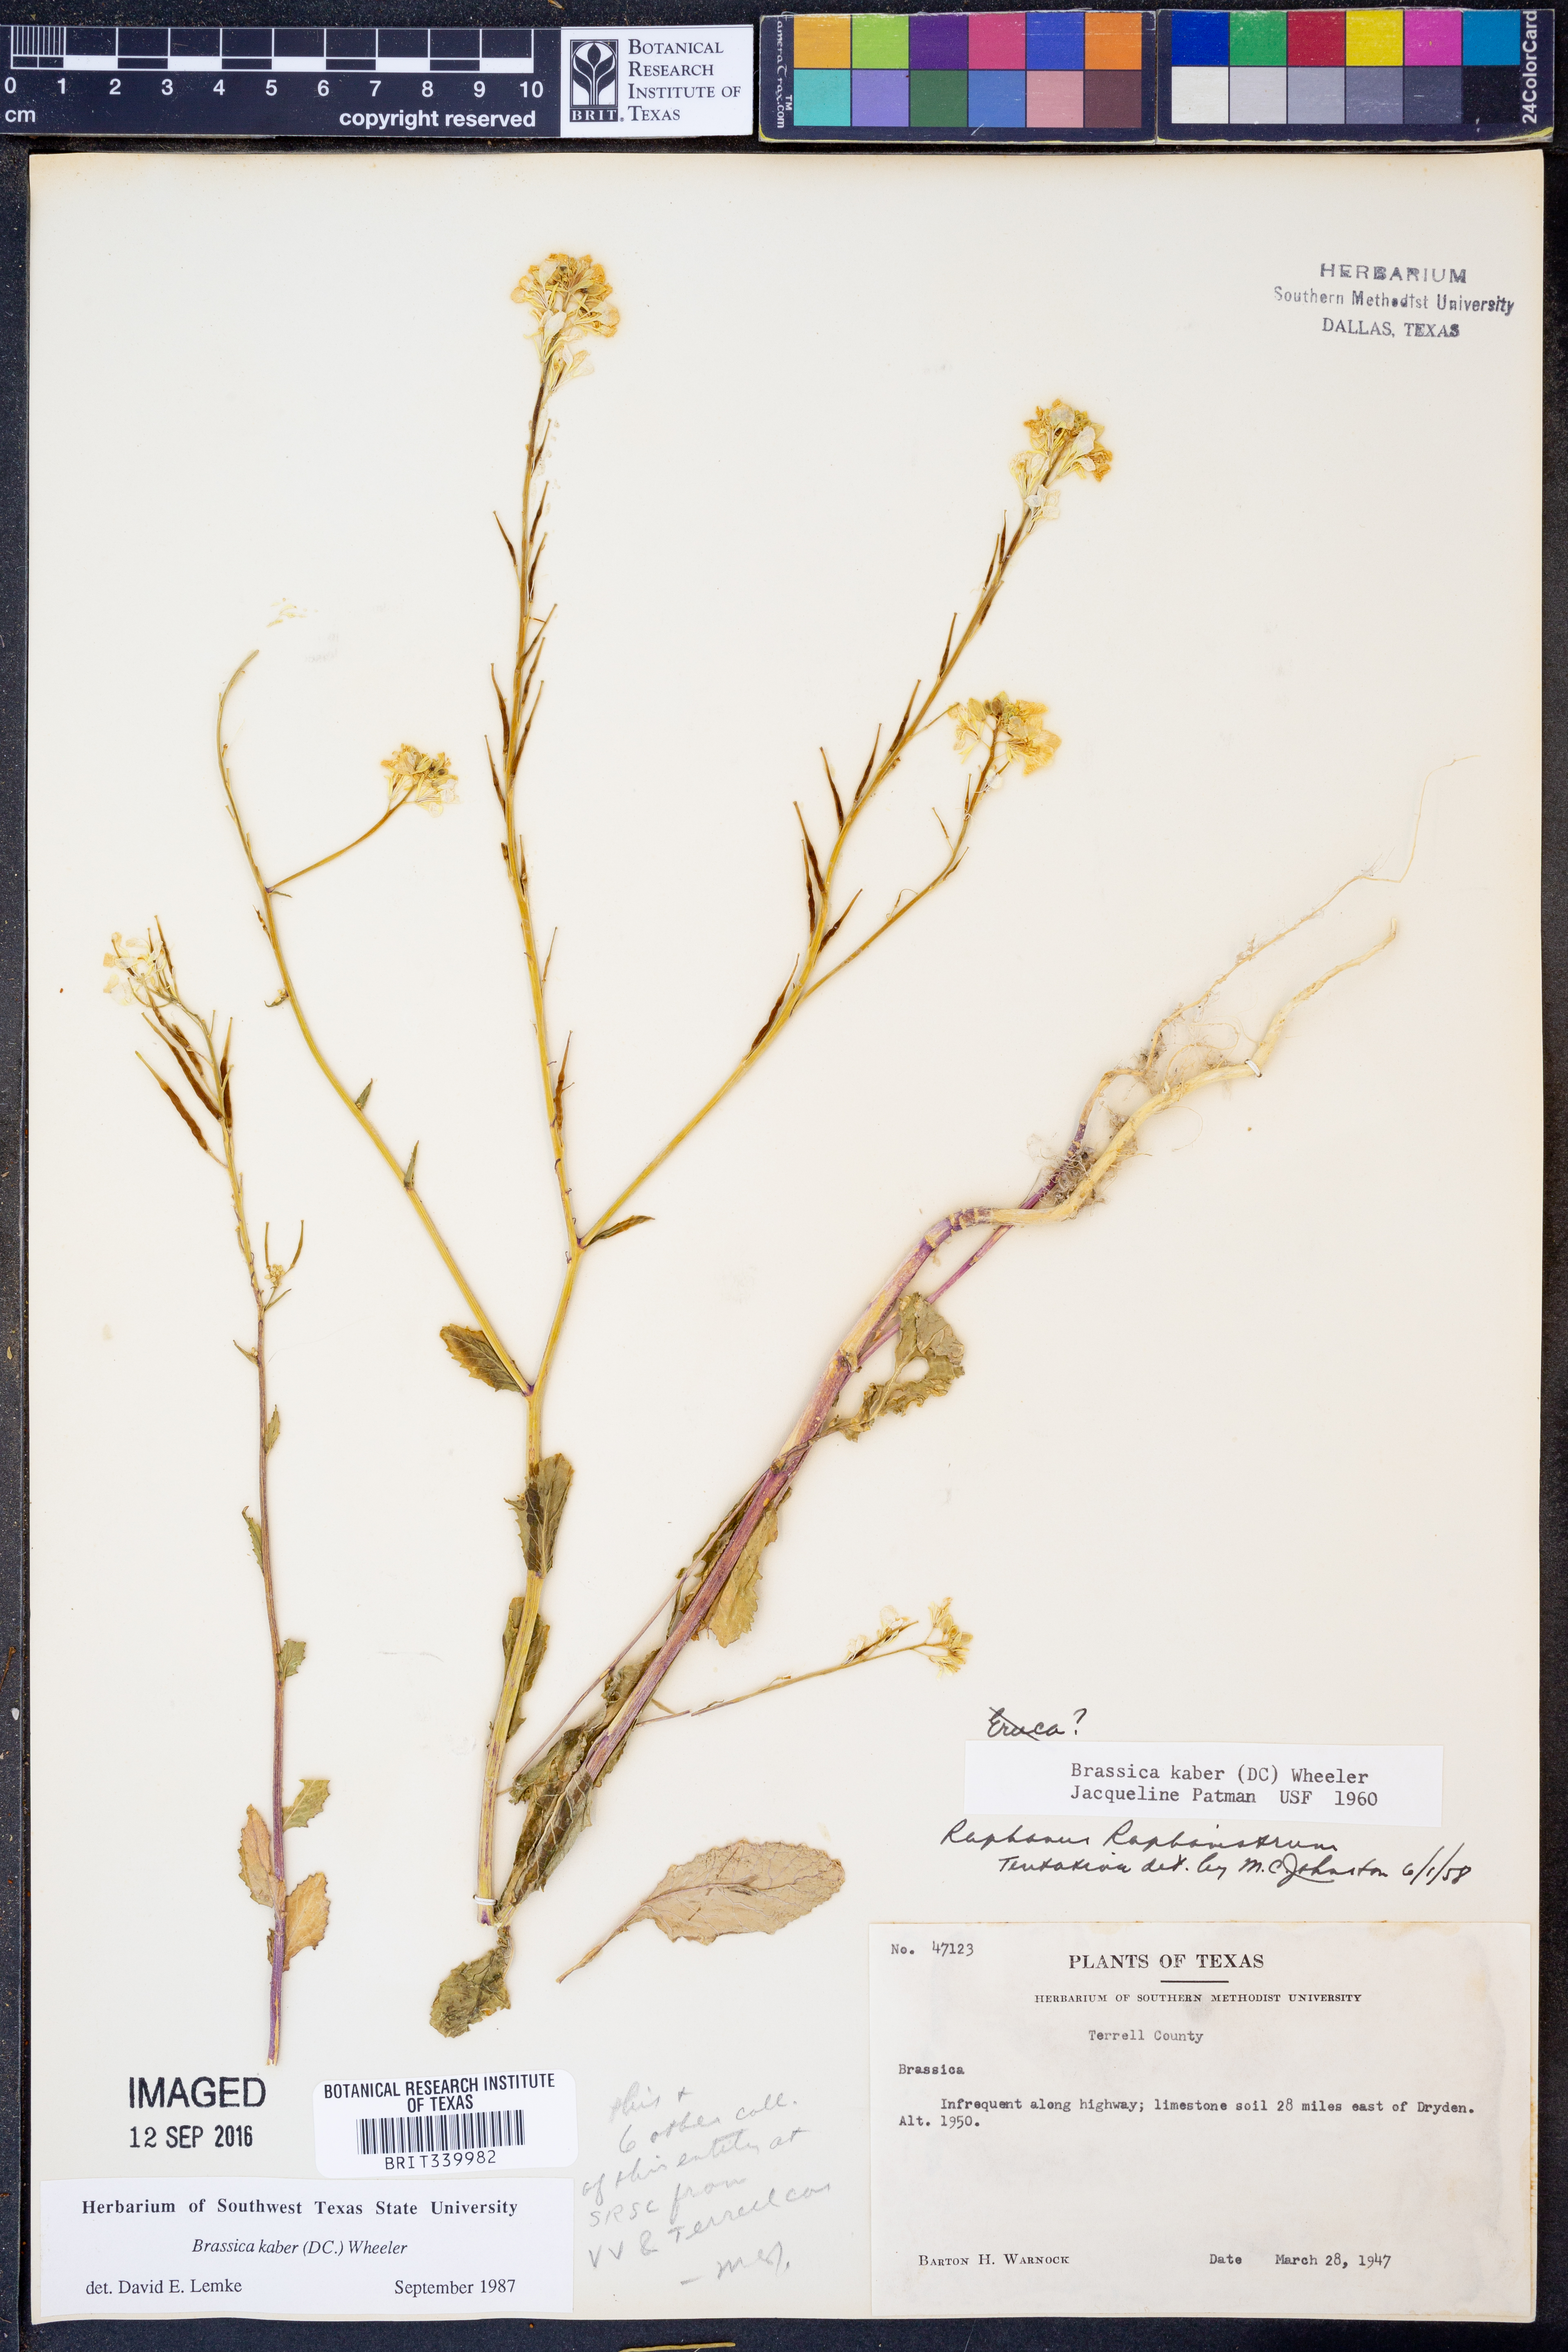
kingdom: Plantae
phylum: Tracheophyta
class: Magnoliopsida
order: Brassicales
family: Brassicaceae
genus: Sinapis
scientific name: Sinapis arvensis
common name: Charlock
